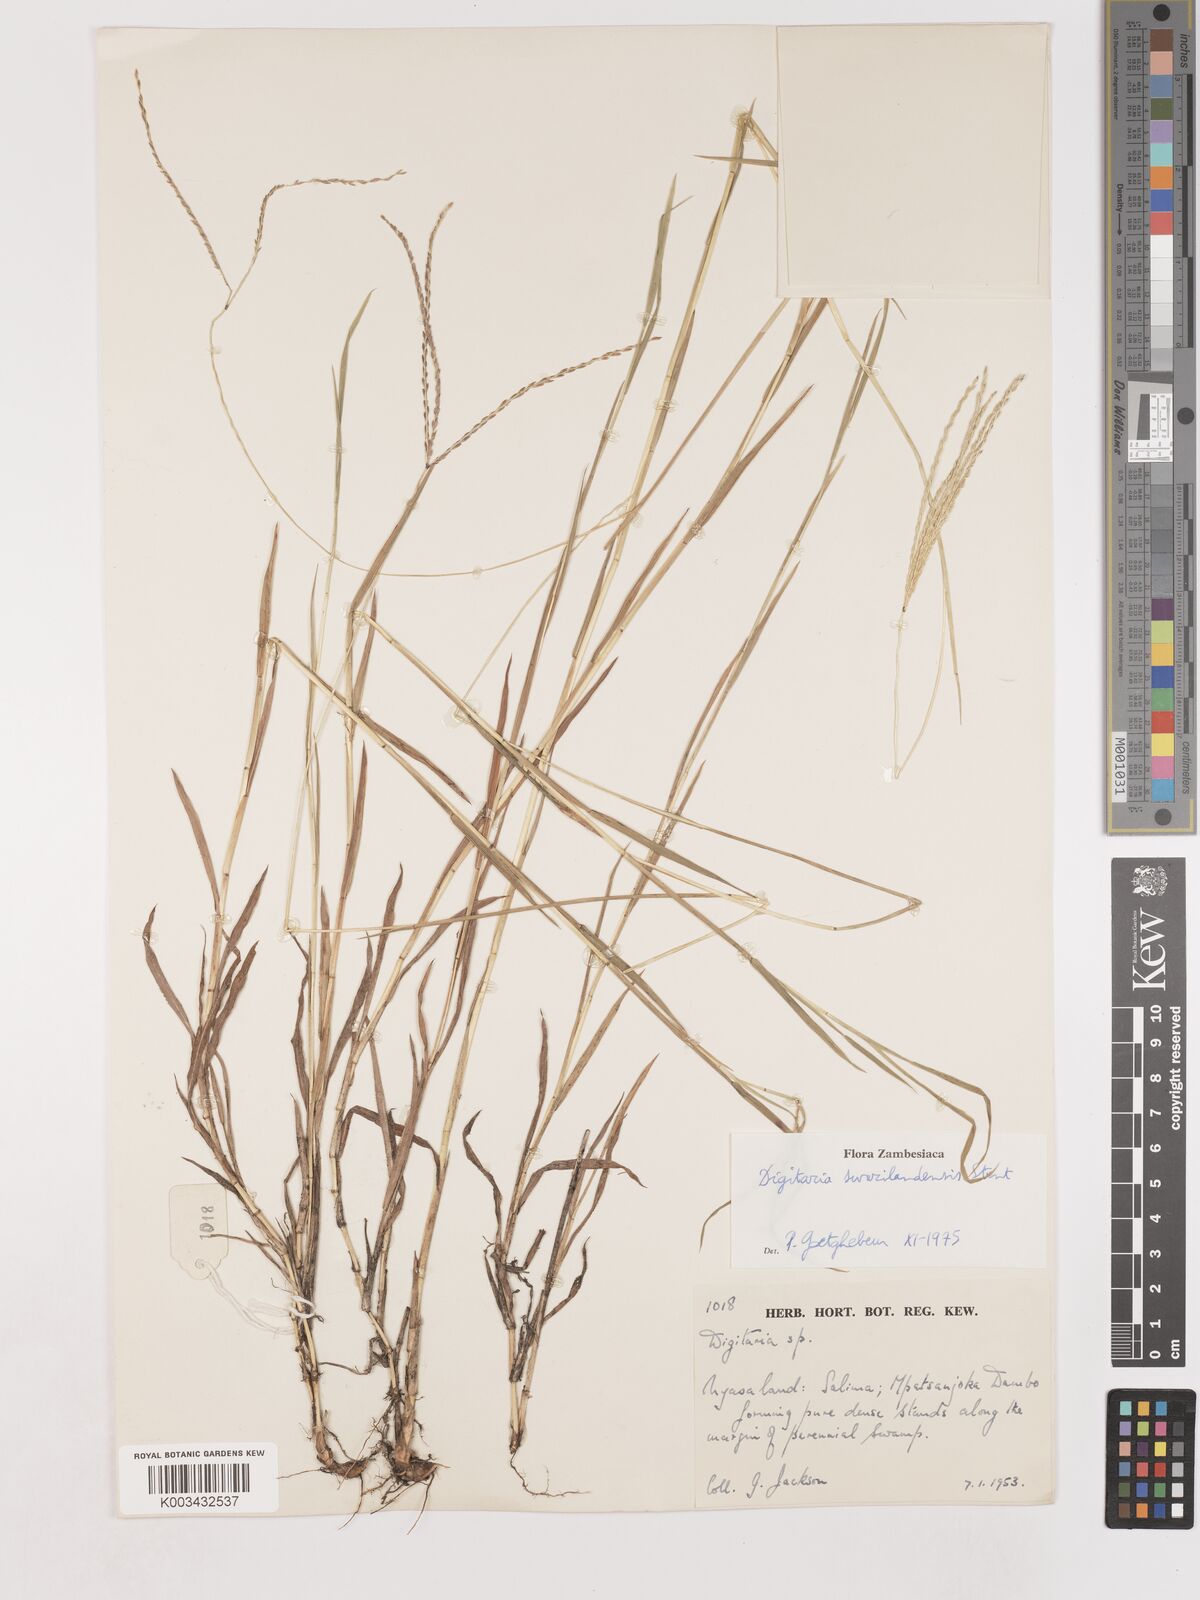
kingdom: Plantae
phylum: Tracheophyta
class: Liliopsida
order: Poales
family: Poaceae
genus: Digitaria
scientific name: Digitaria didactyla
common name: Blue couch
